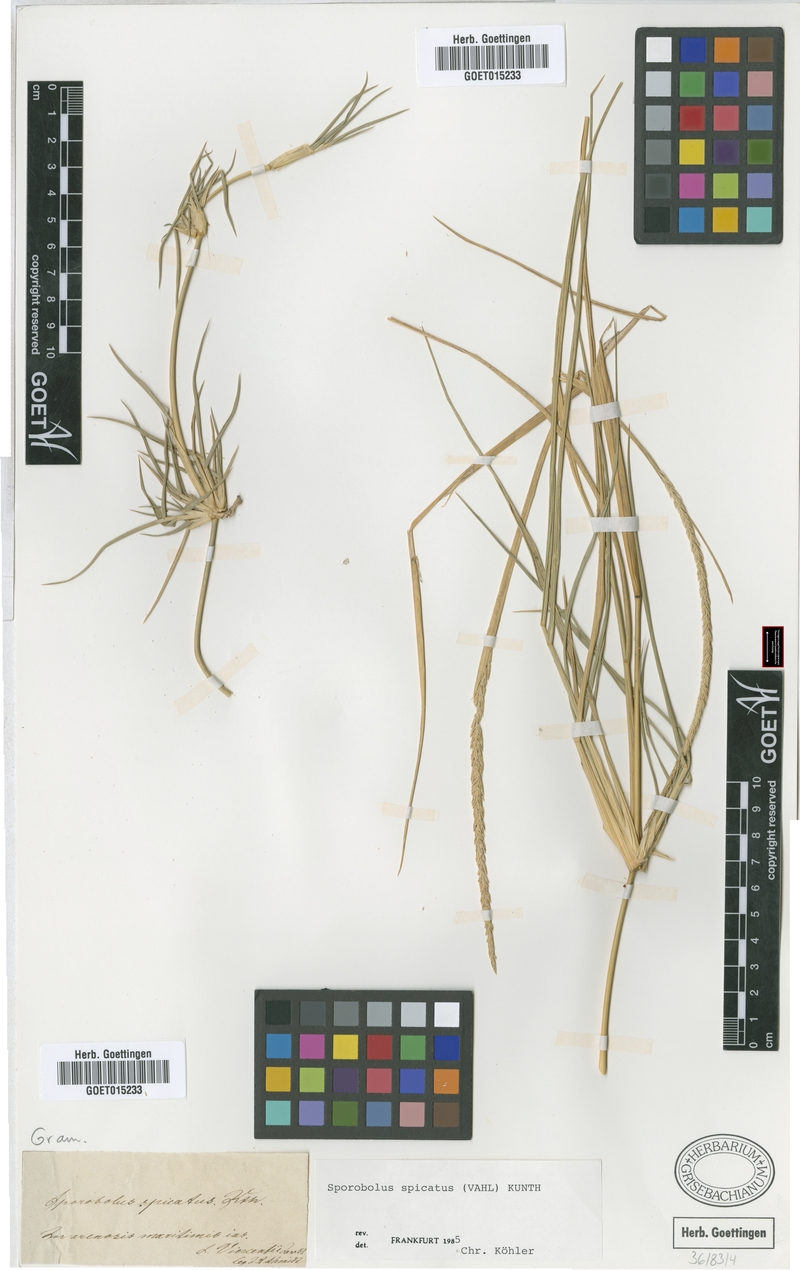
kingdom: Plantae
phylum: Tracheophyta
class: Liliopsida
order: Poales
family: Poaceae
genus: Sporobolus
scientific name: Sporobolus spicatus
